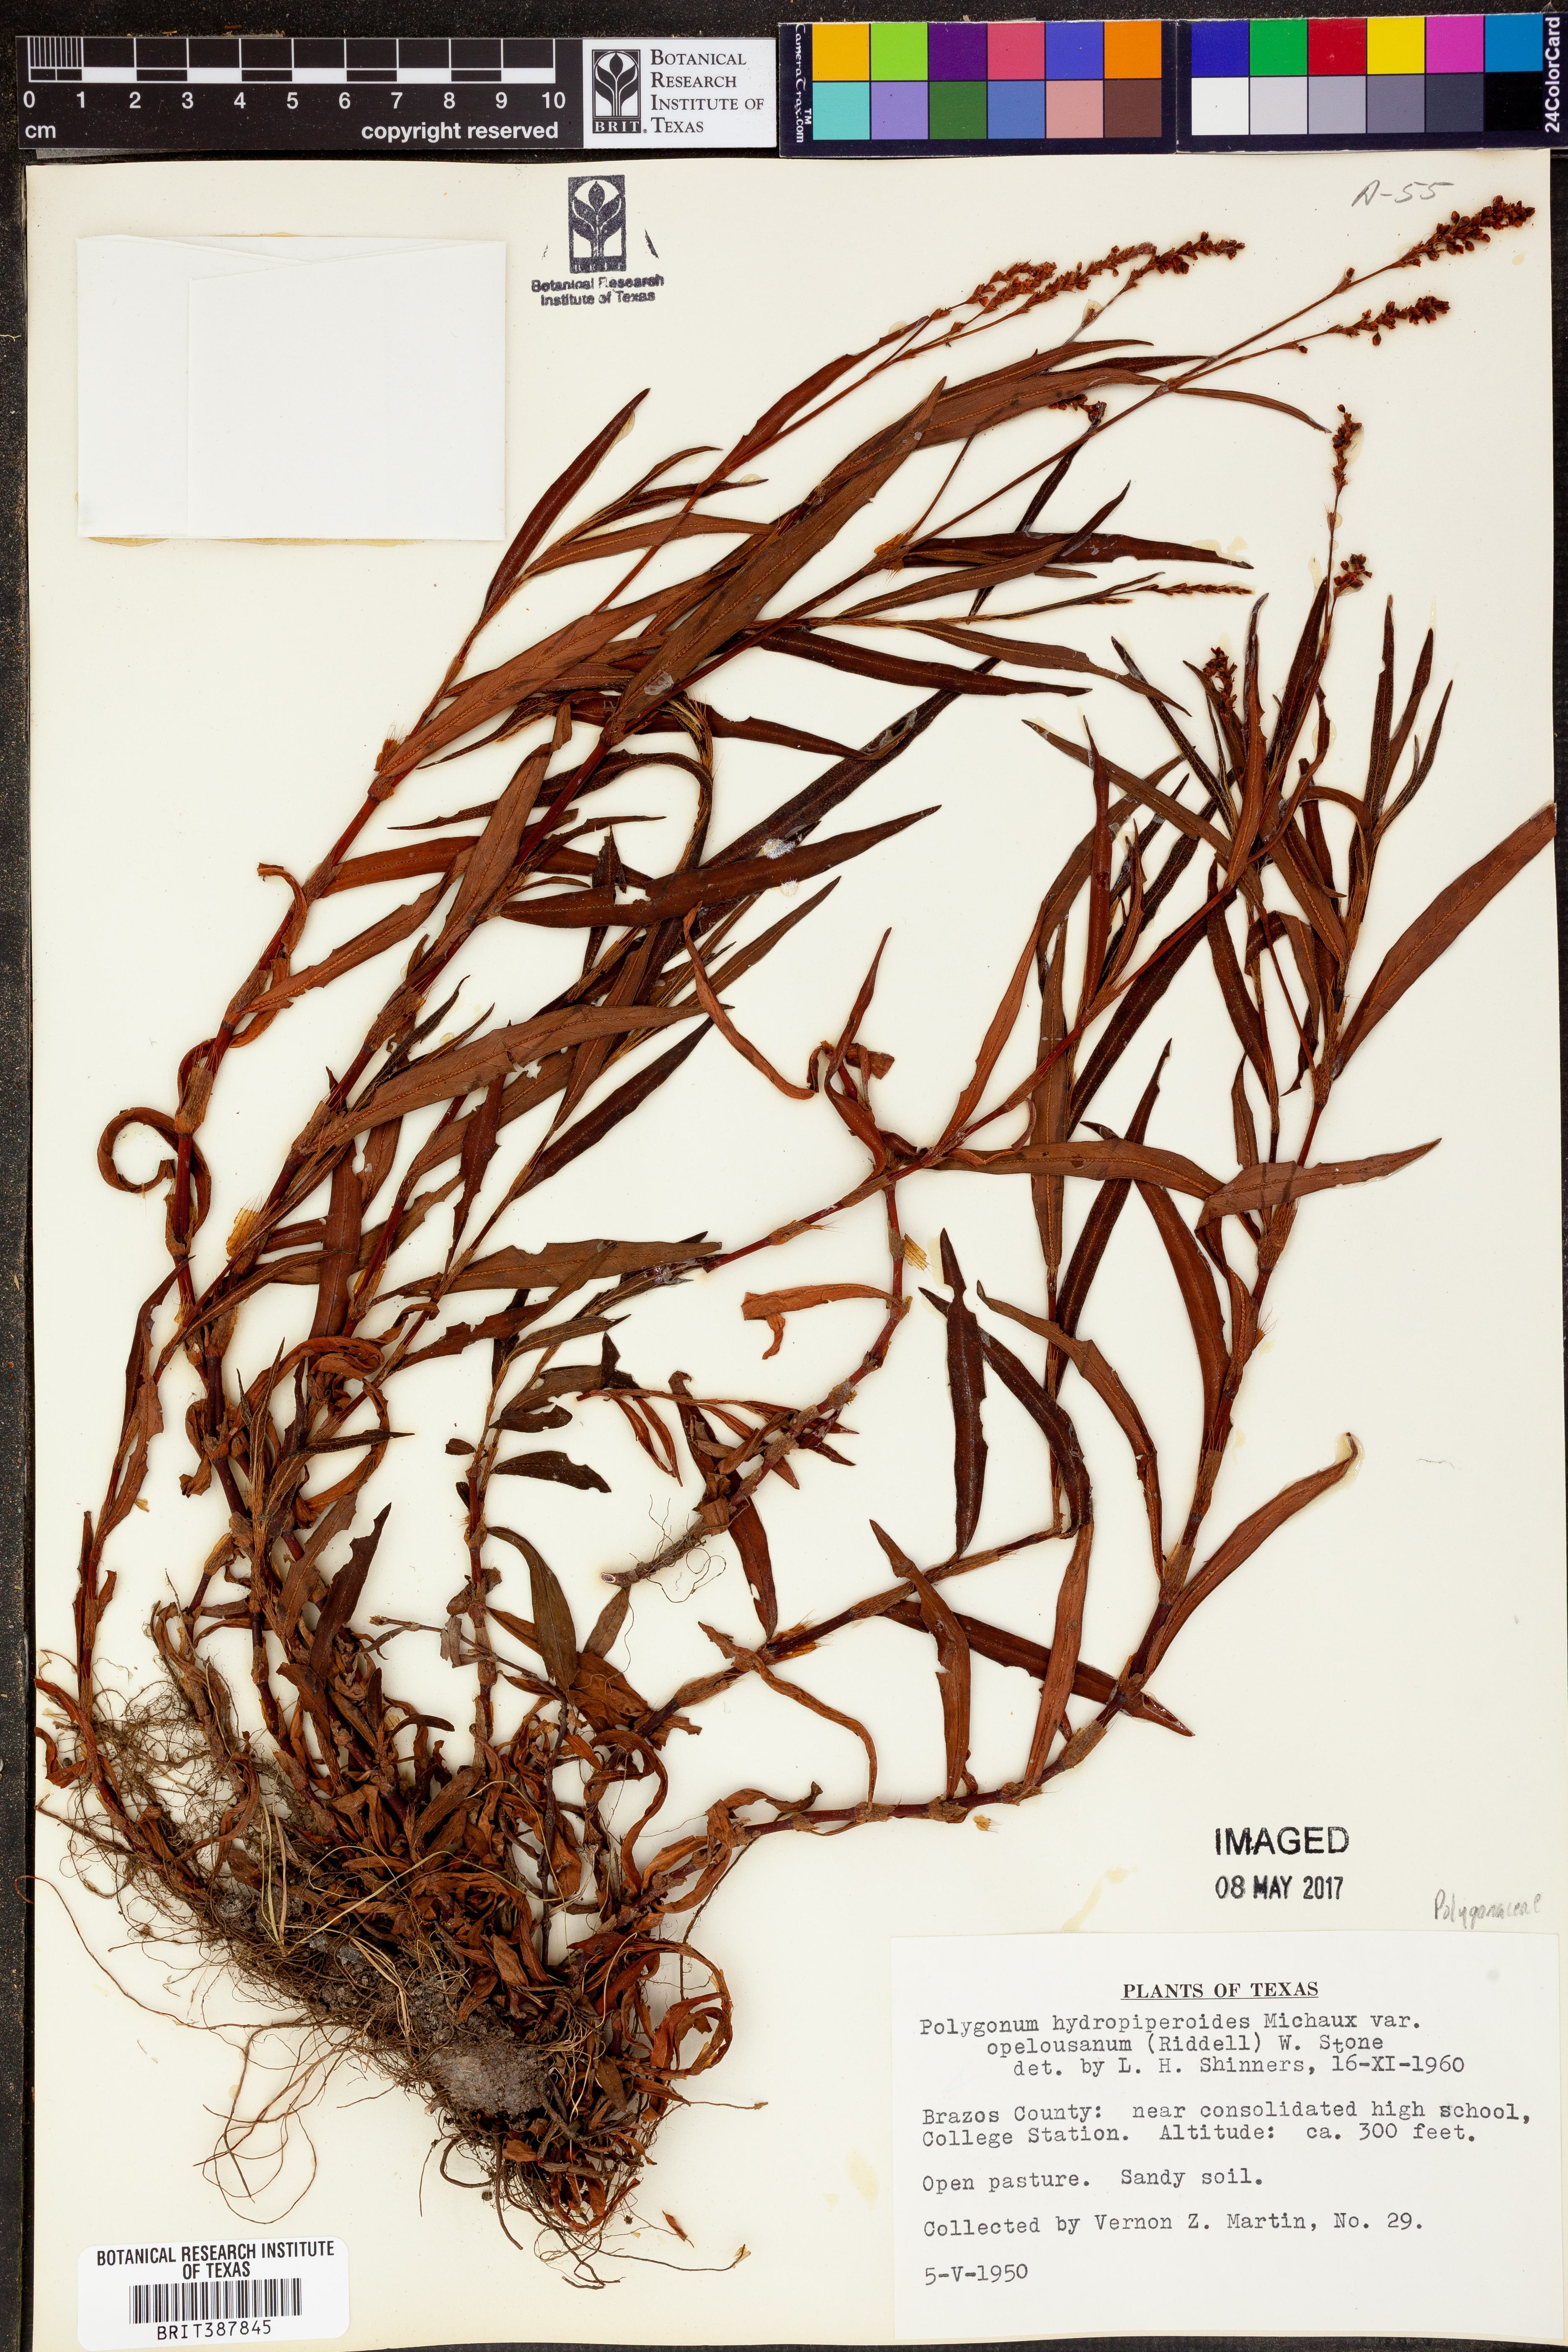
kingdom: Plantae
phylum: Tracheophyta
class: Magnoliopsida
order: Caryophyllales
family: Polygonaceae
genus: Persicaria
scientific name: Persicaria hydropiperoides
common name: Swamp smartweed
